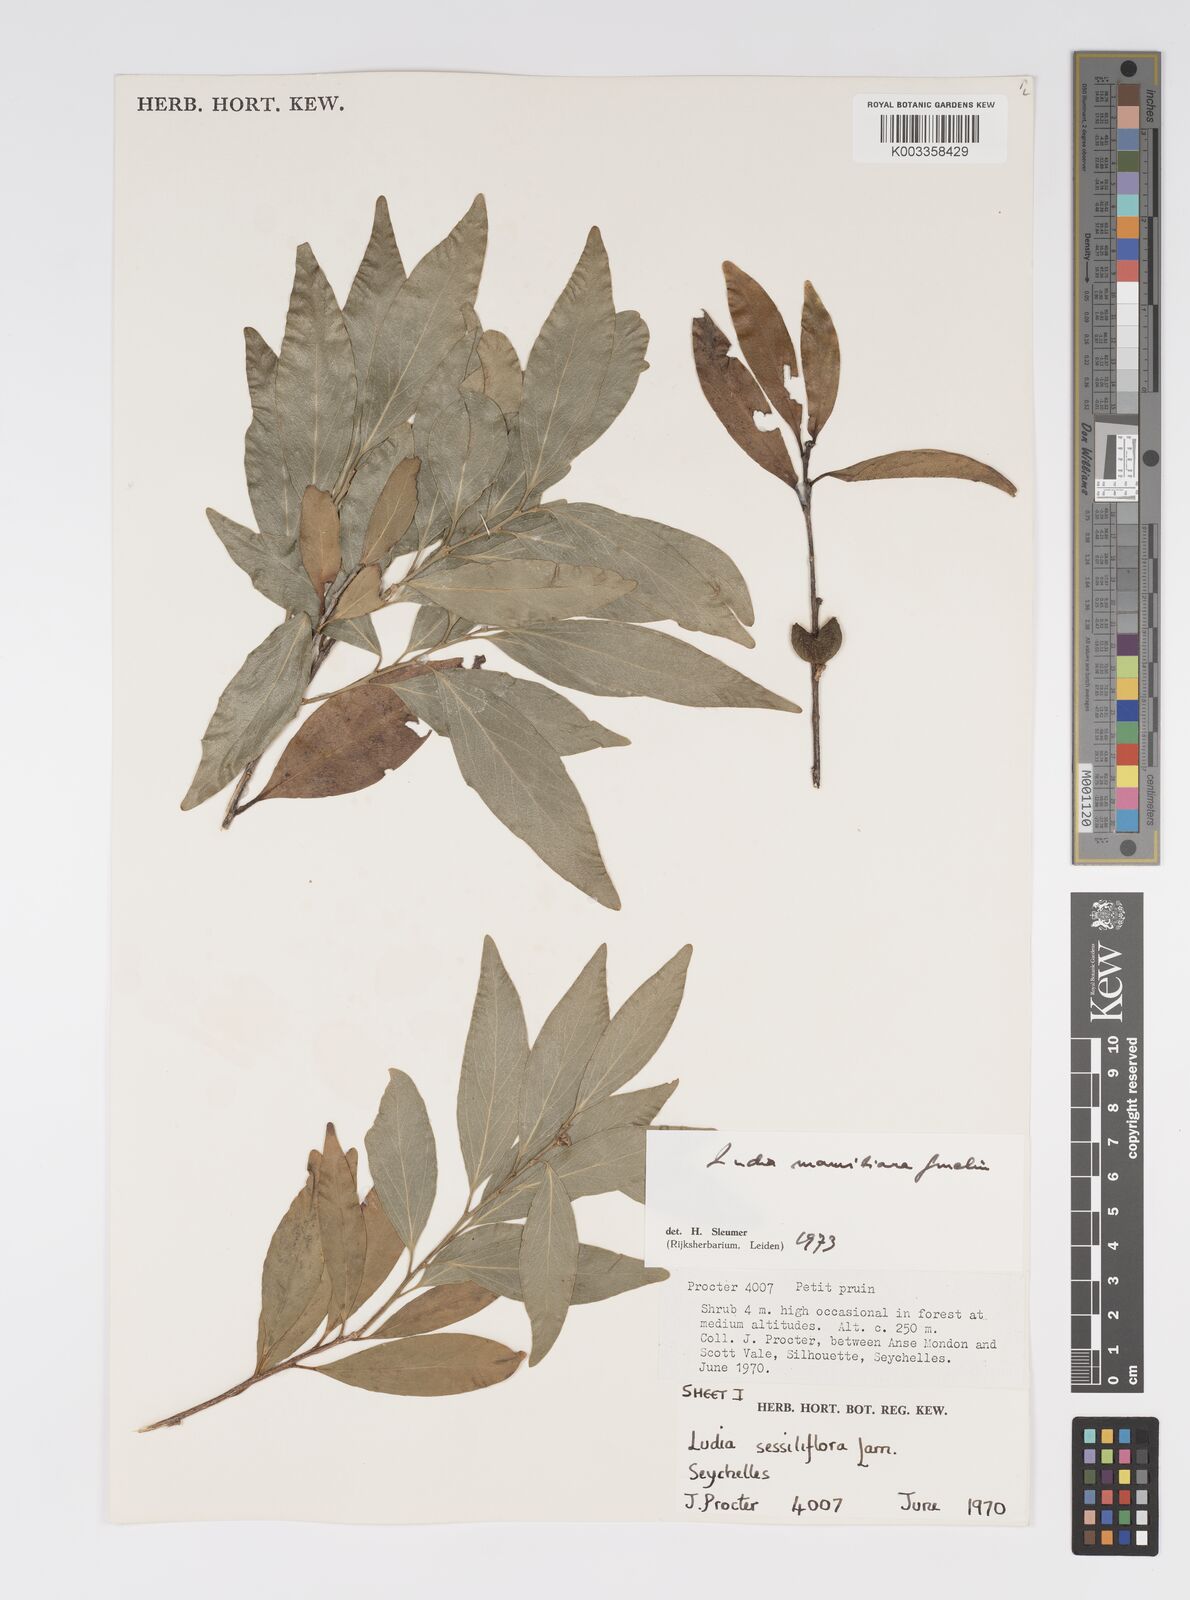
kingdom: Plantae
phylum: Tracheophyta
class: Magnoliopsida
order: Malpighiales
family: Salicaceae
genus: Ludia
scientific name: Ludia mauritiana
